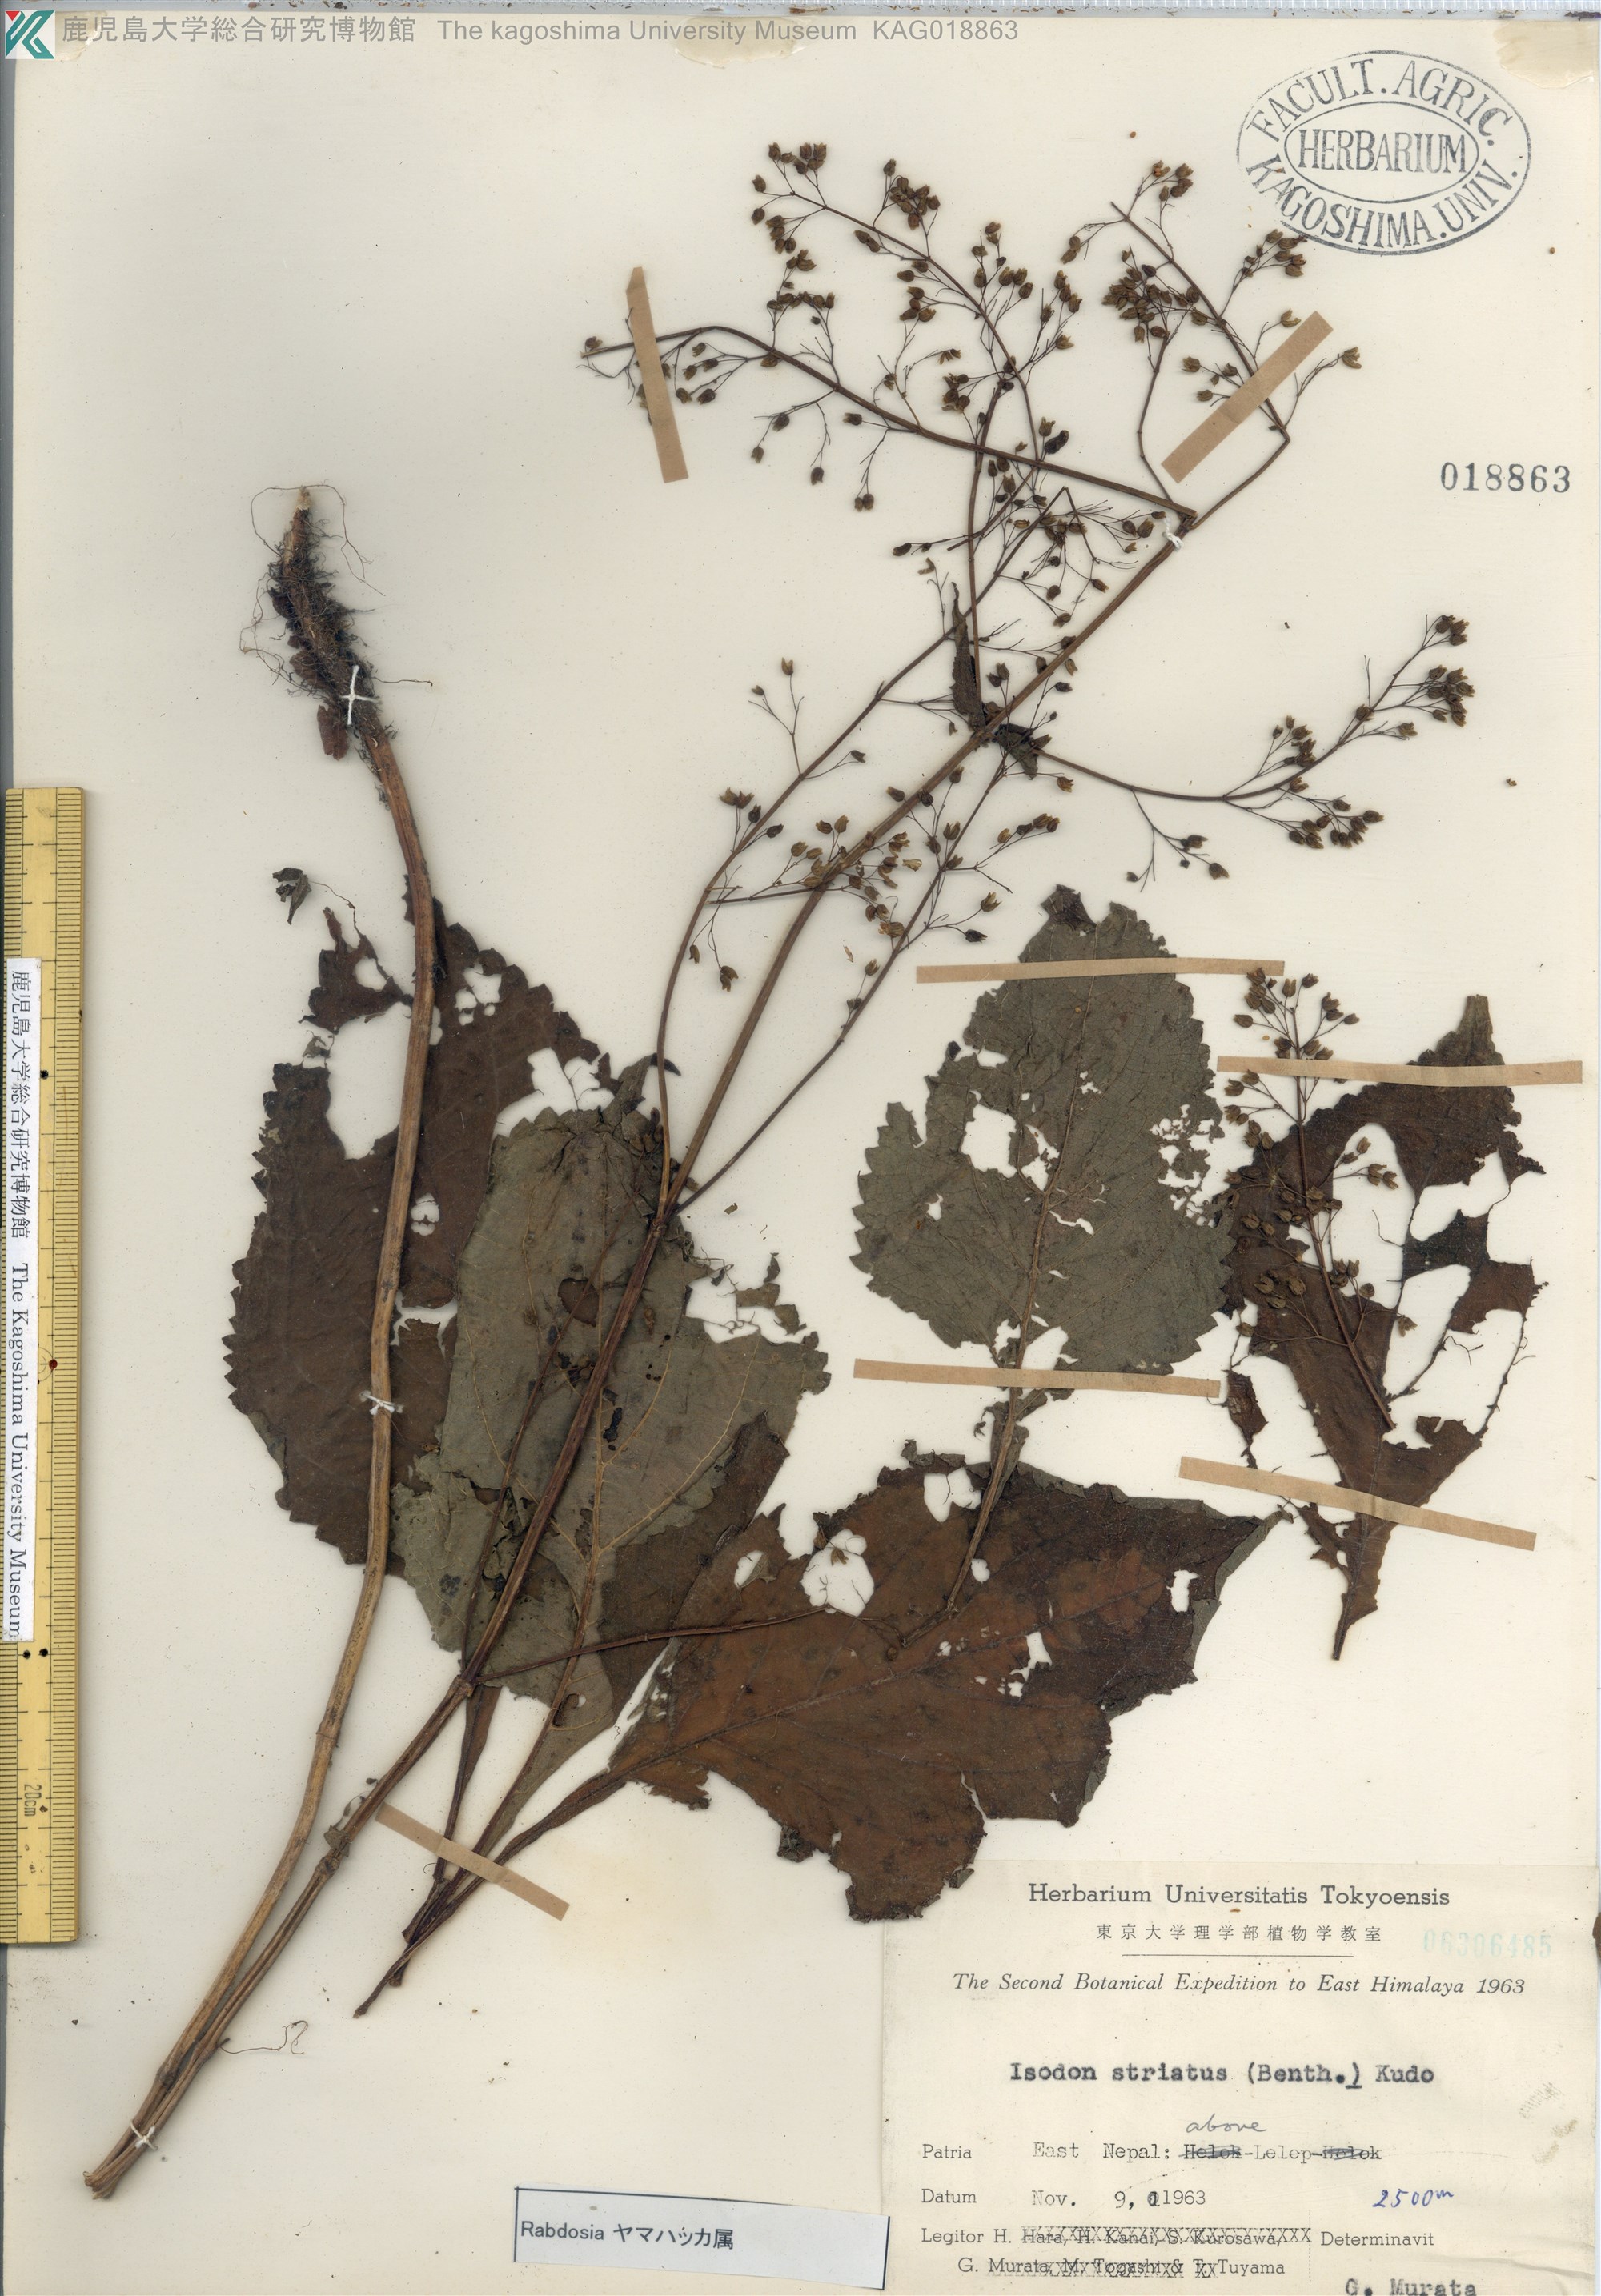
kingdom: Plantae
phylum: Tracheophyta
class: Magnoliopsida
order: Lamiales
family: Lamiaceae
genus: Isodon
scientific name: Isodon
